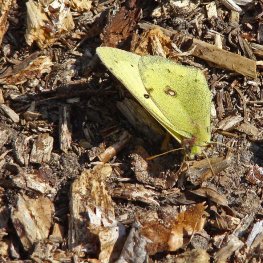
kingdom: Animalia
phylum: Arthropoda
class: Insecta
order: Lepidoptera
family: Pieridae
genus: Colias
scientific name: Colias philodice
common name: Clouded Sulphur
